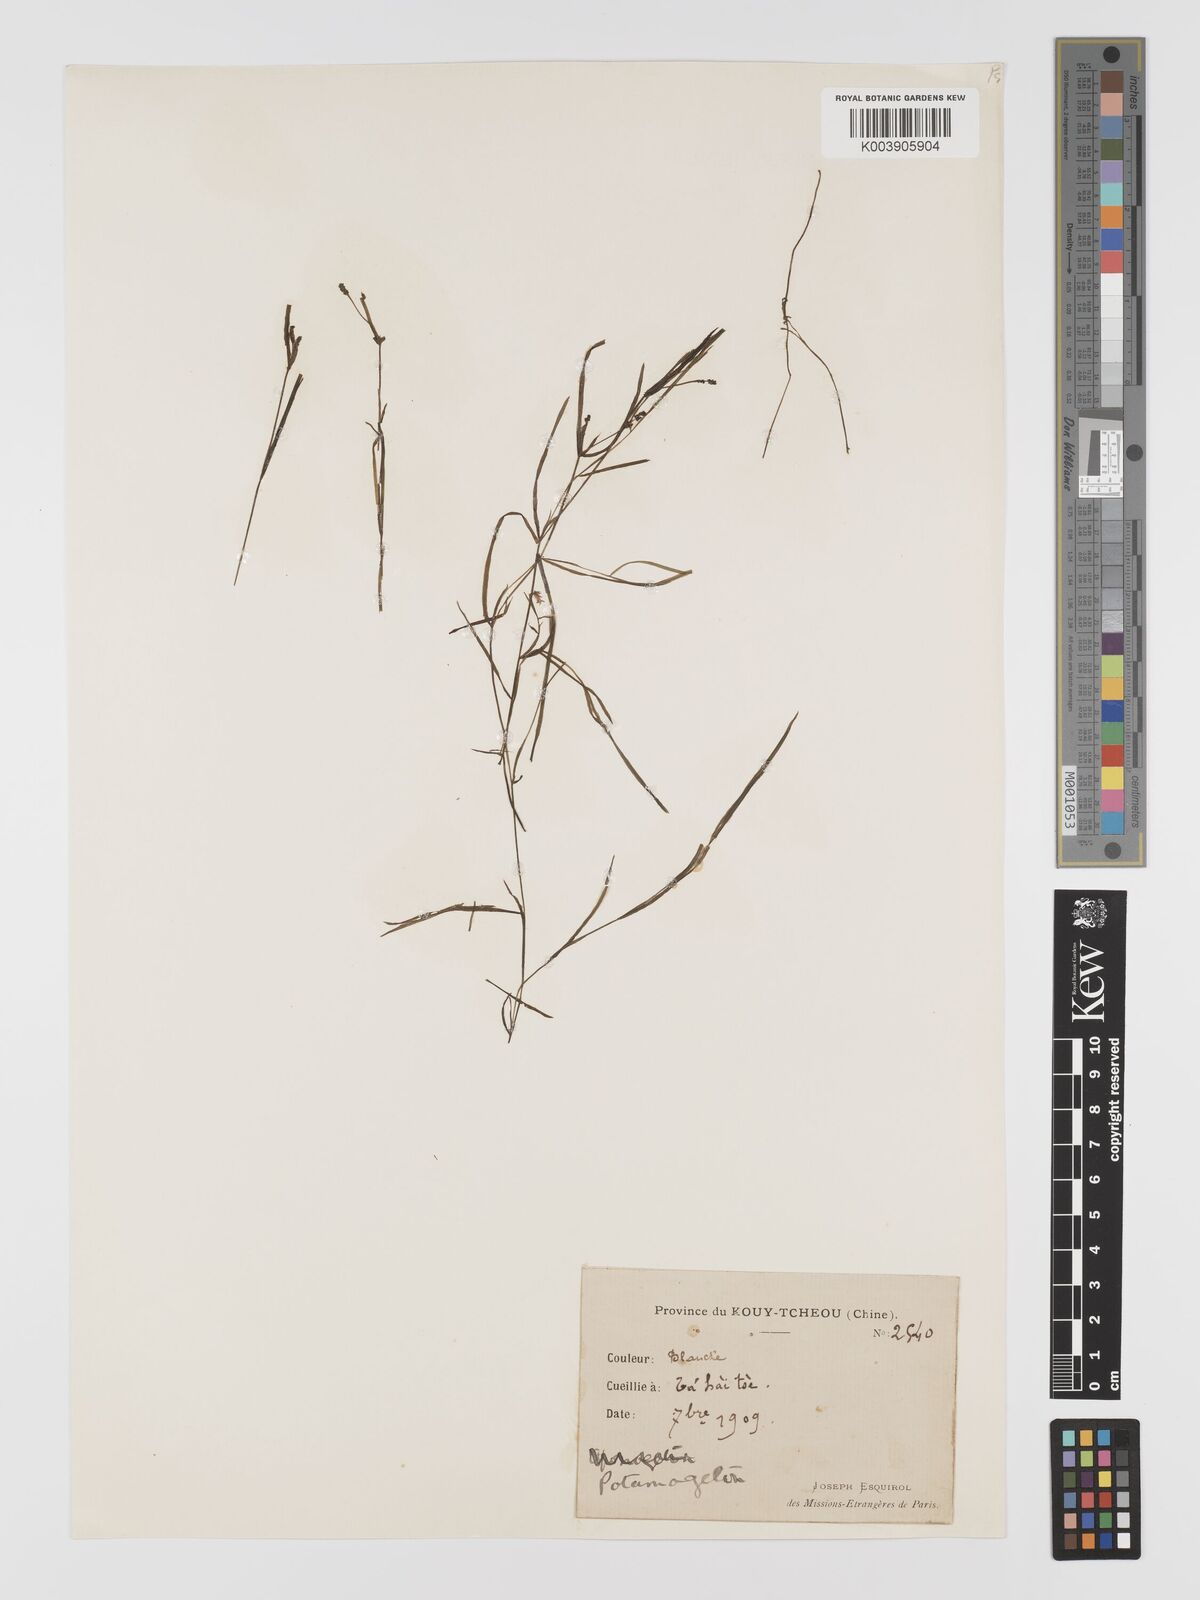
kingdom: Plantae
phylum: Tracheophyta
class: Liliopsida
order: Alismatales
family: Potamogetonaceae
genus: Potamogeton
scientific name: Potamogeton pusillus
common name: Lesser pondweed
